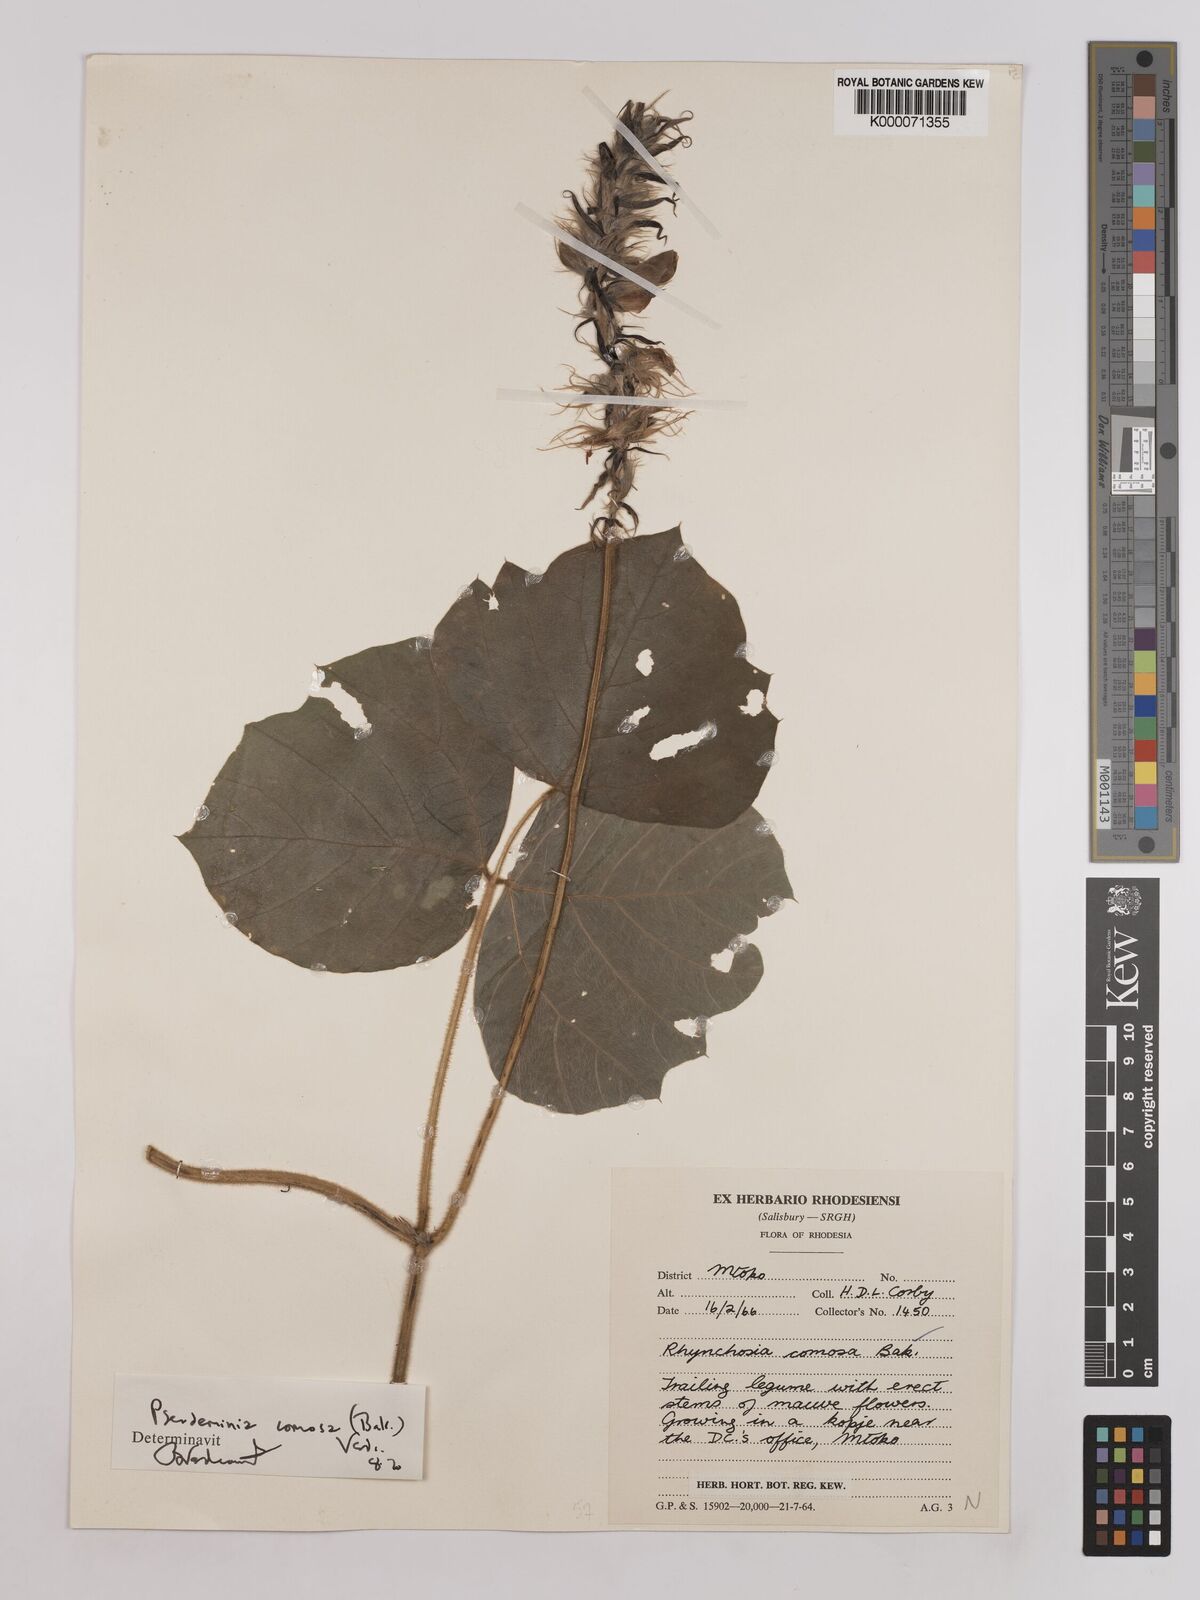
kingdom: Plantae
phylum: Tracheophyta
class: Magnoliopsida
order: Fabales
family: Fabaceae
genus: Pseudeminia
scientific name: Pseudeminia comosa
